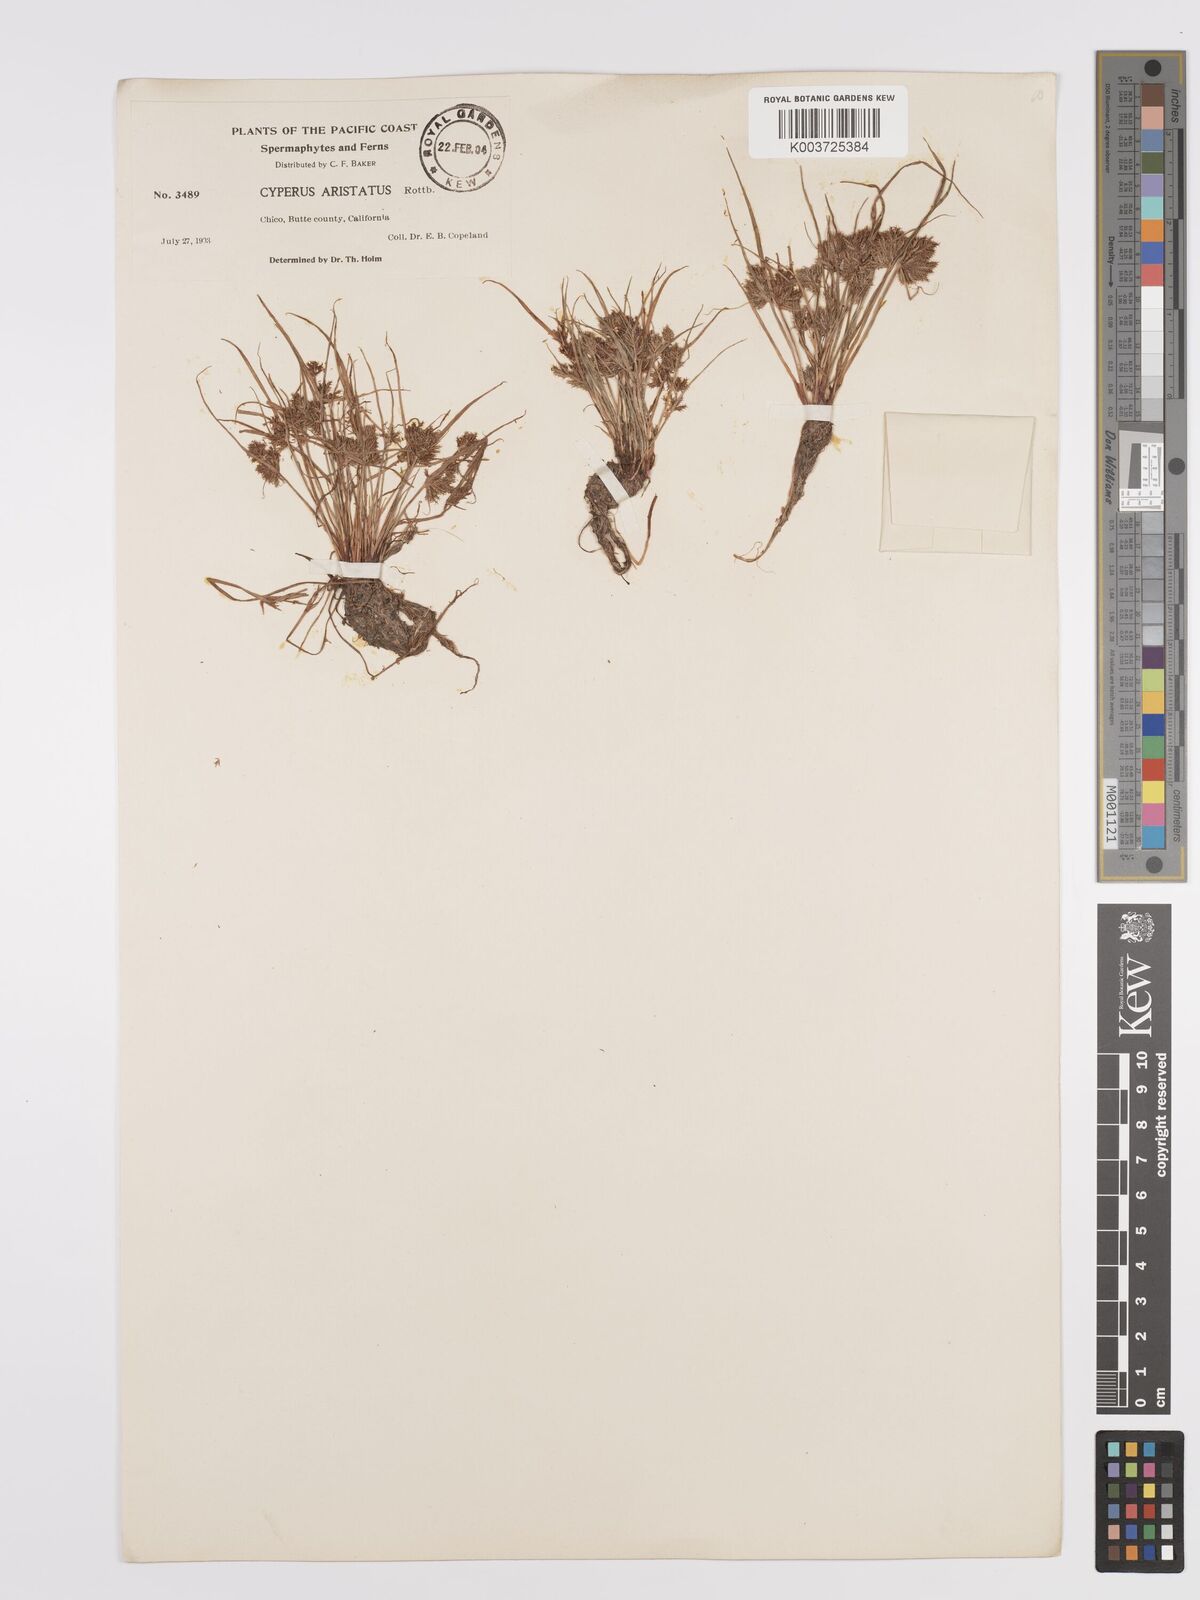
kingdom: Plantae
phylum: Tracheophyta
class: Liliopsida
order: Poales
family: Cyperaceae
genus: Cyperus
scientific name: Cyperus squarrosus
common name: Awned cyperus
